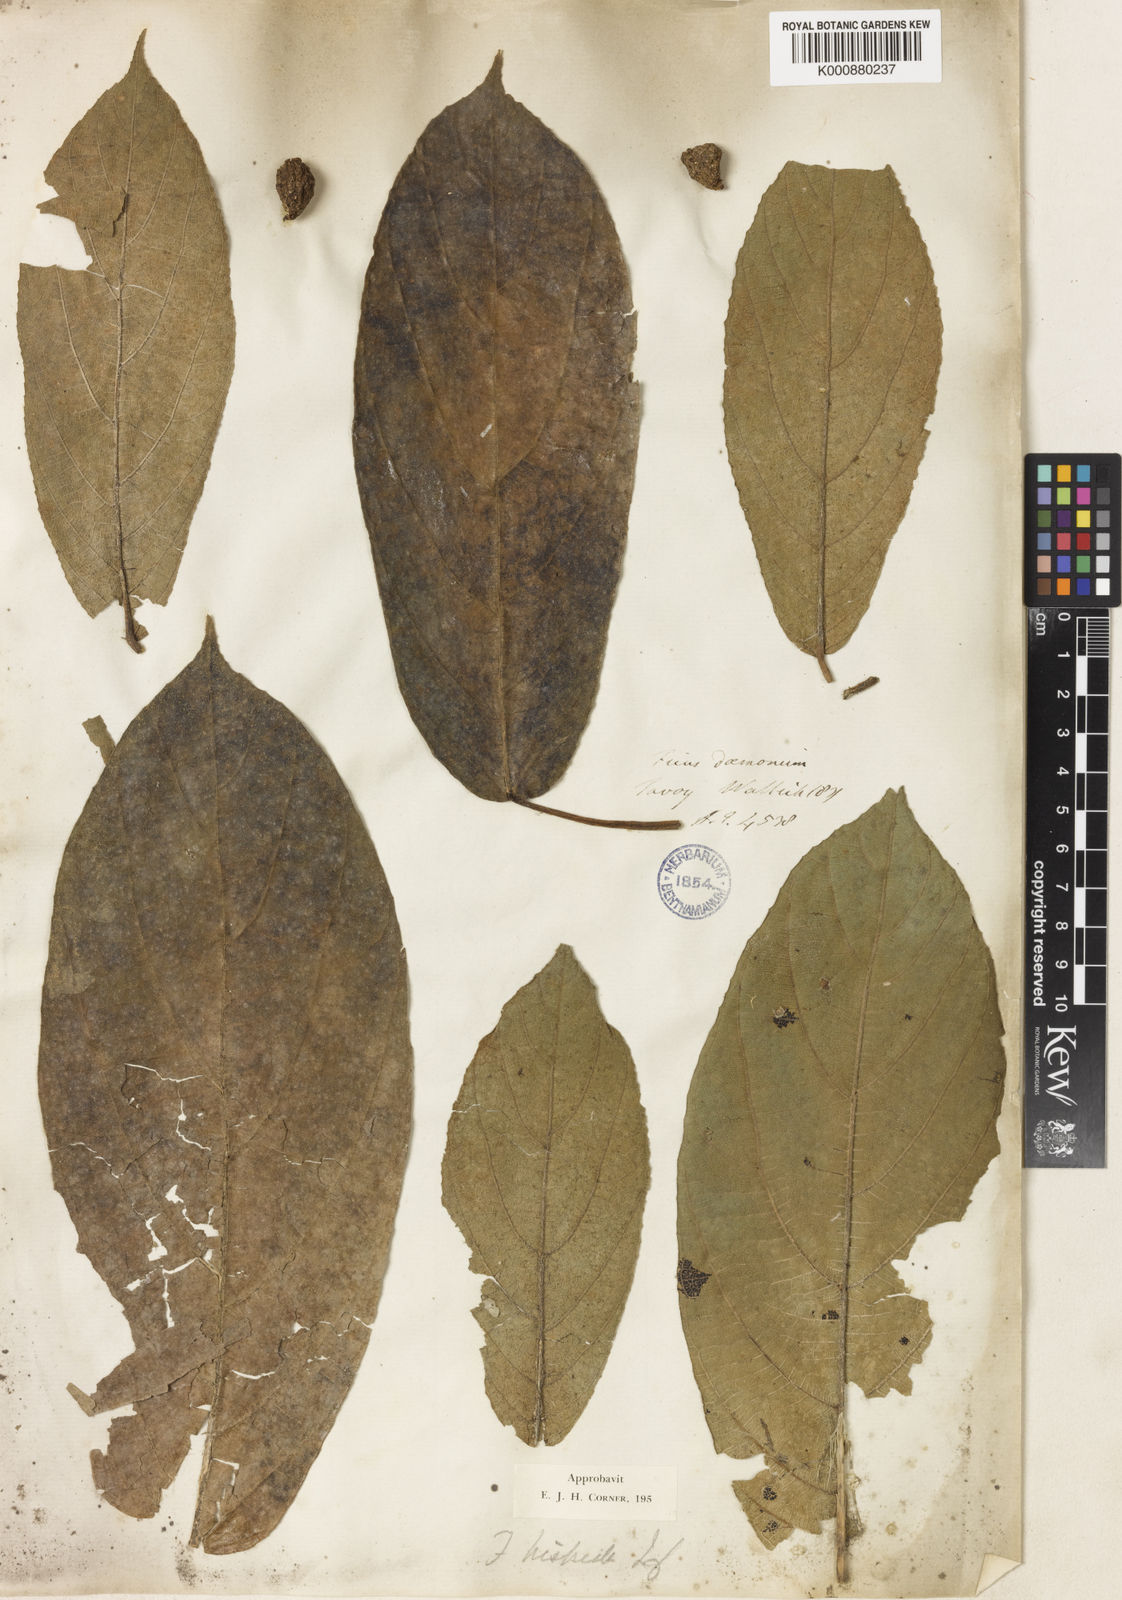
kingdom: Plantae
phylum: Tracheophyta
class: Magnoliopsida
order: Rosales
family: Moraceae
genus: Ficus
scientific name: Ficus hispida
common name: Hairy fig
